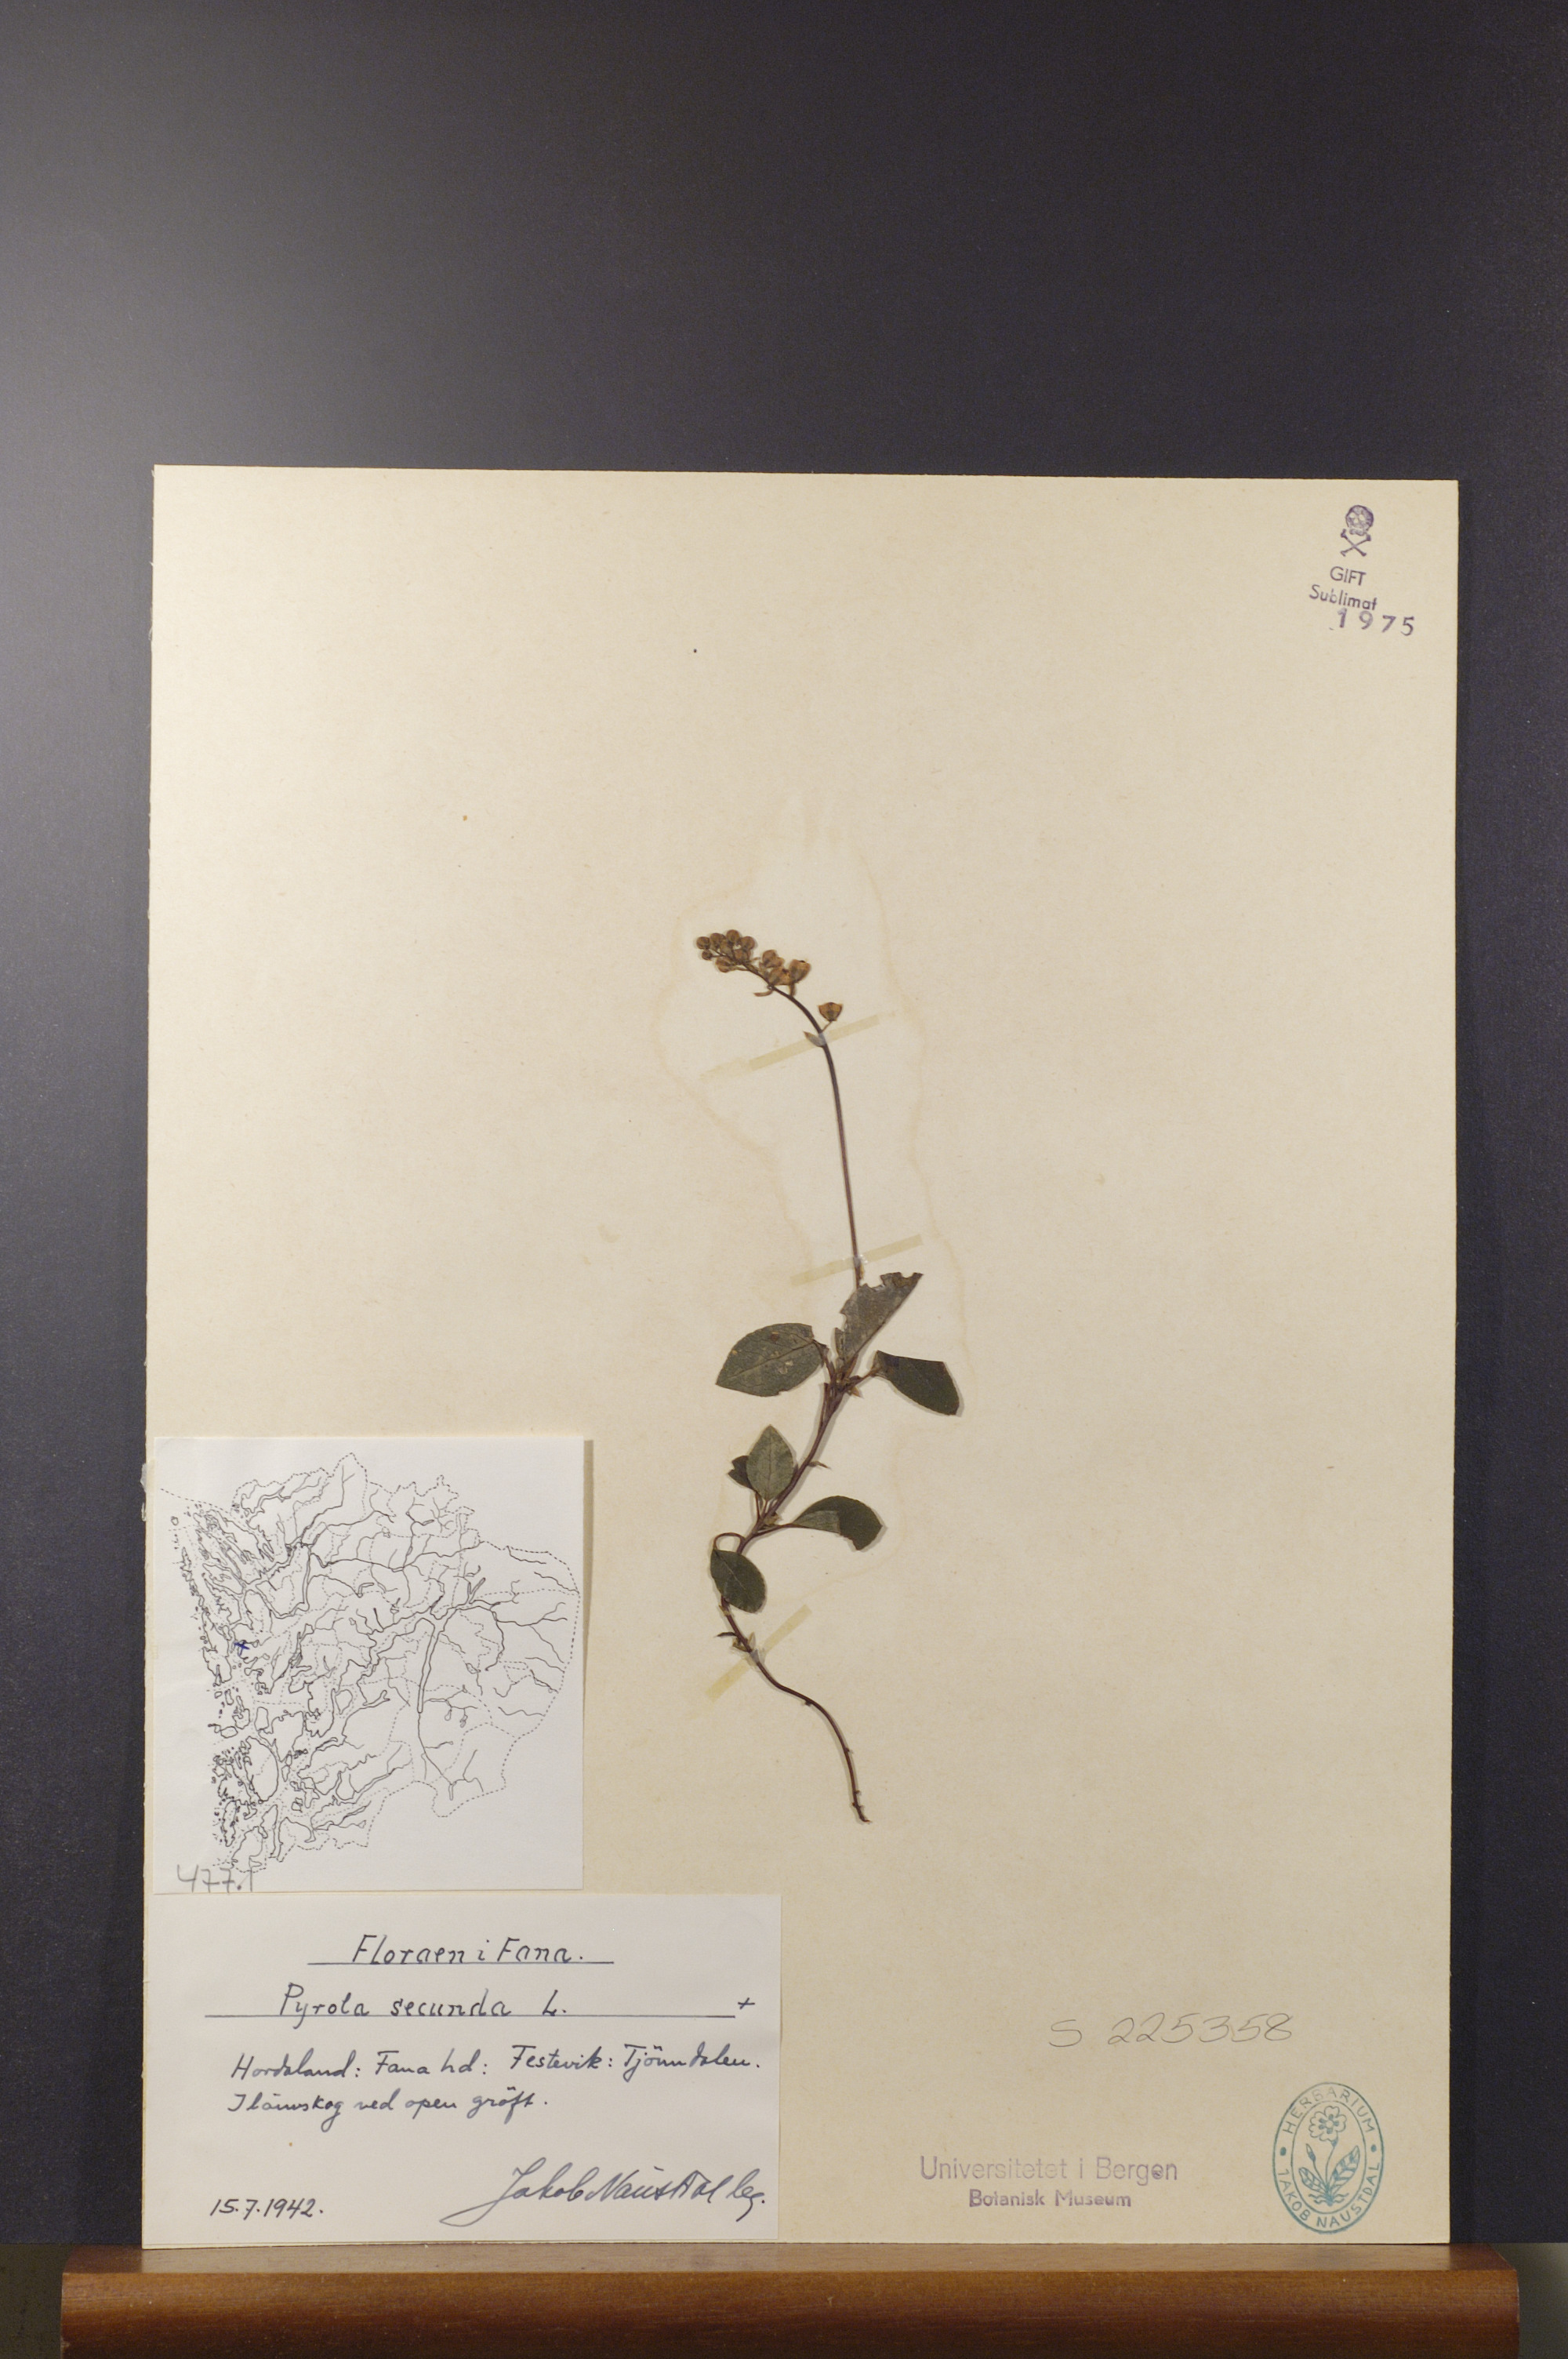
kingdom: Plantae
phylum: Tracheophyta
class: Magnoliopsida
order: Ericales
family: Ericaceae
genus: Orthilia
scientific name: Orthilia secunda
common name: One-sided orthilia
